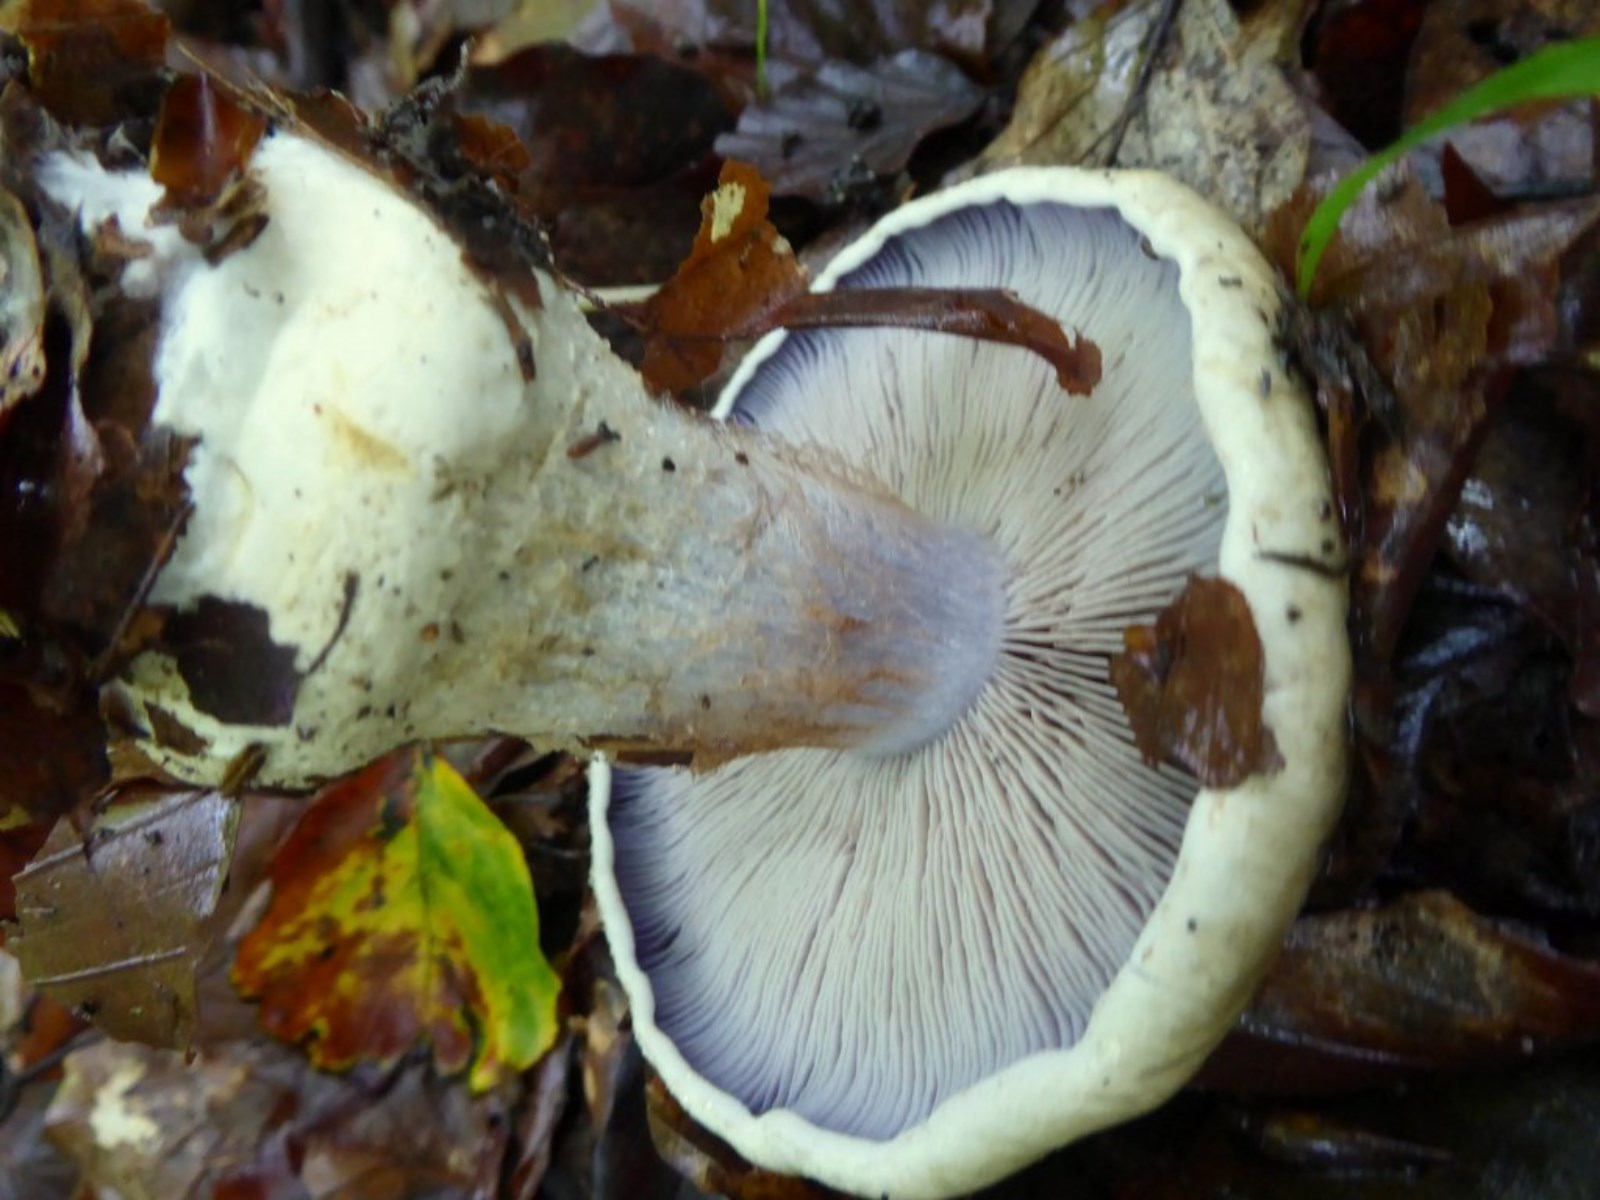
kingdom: Fungi
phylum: Basidiomycota
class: Agaricomycetes
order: Agaricales
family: Cortinariaceae
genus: Cortinarius
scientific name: Cortinarius anserinus
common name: bøge-slørhat
